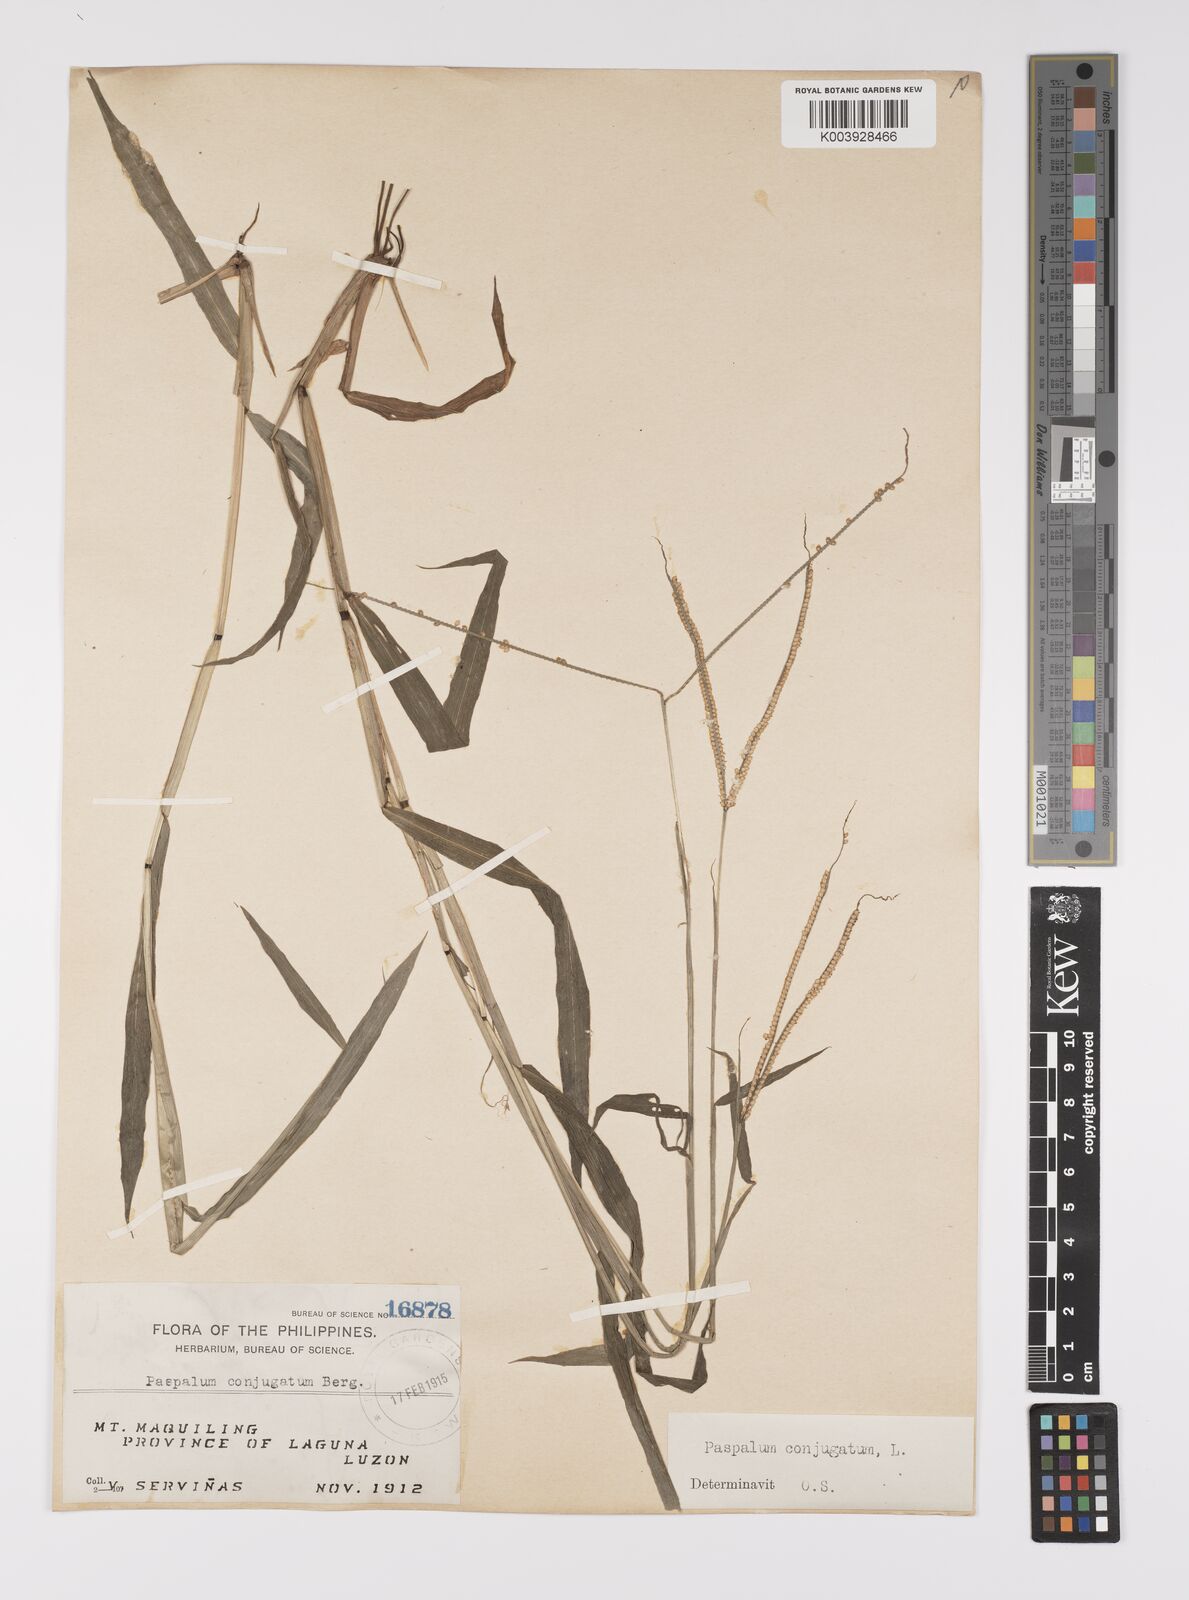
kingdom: Plantae
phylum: Tracheophyta
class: Liliopsida
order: Poales
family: Poaceae
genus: Paspalum
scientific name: Paspalum conjugatum
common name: Hilograss
